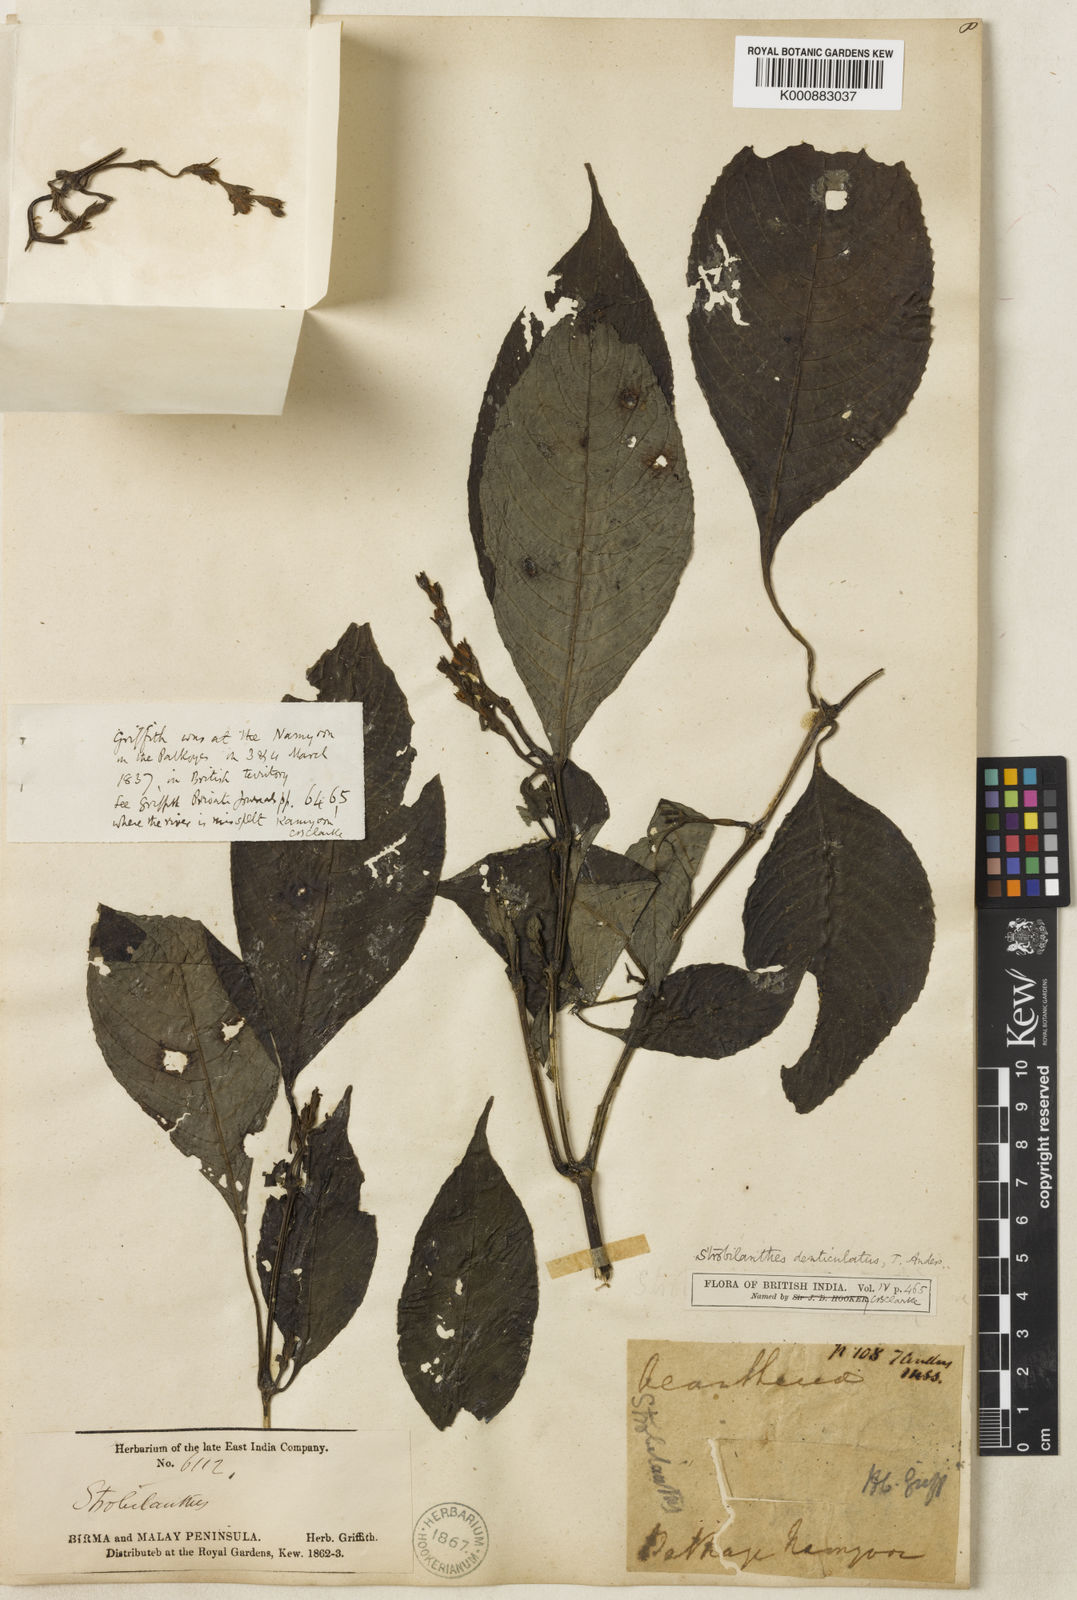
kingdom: Plantae
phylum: Tracheophyta
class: Magnoliopsida
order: Lamiales
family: Acanthaceae
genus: Strobilanthes
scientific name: Strobilanthes
